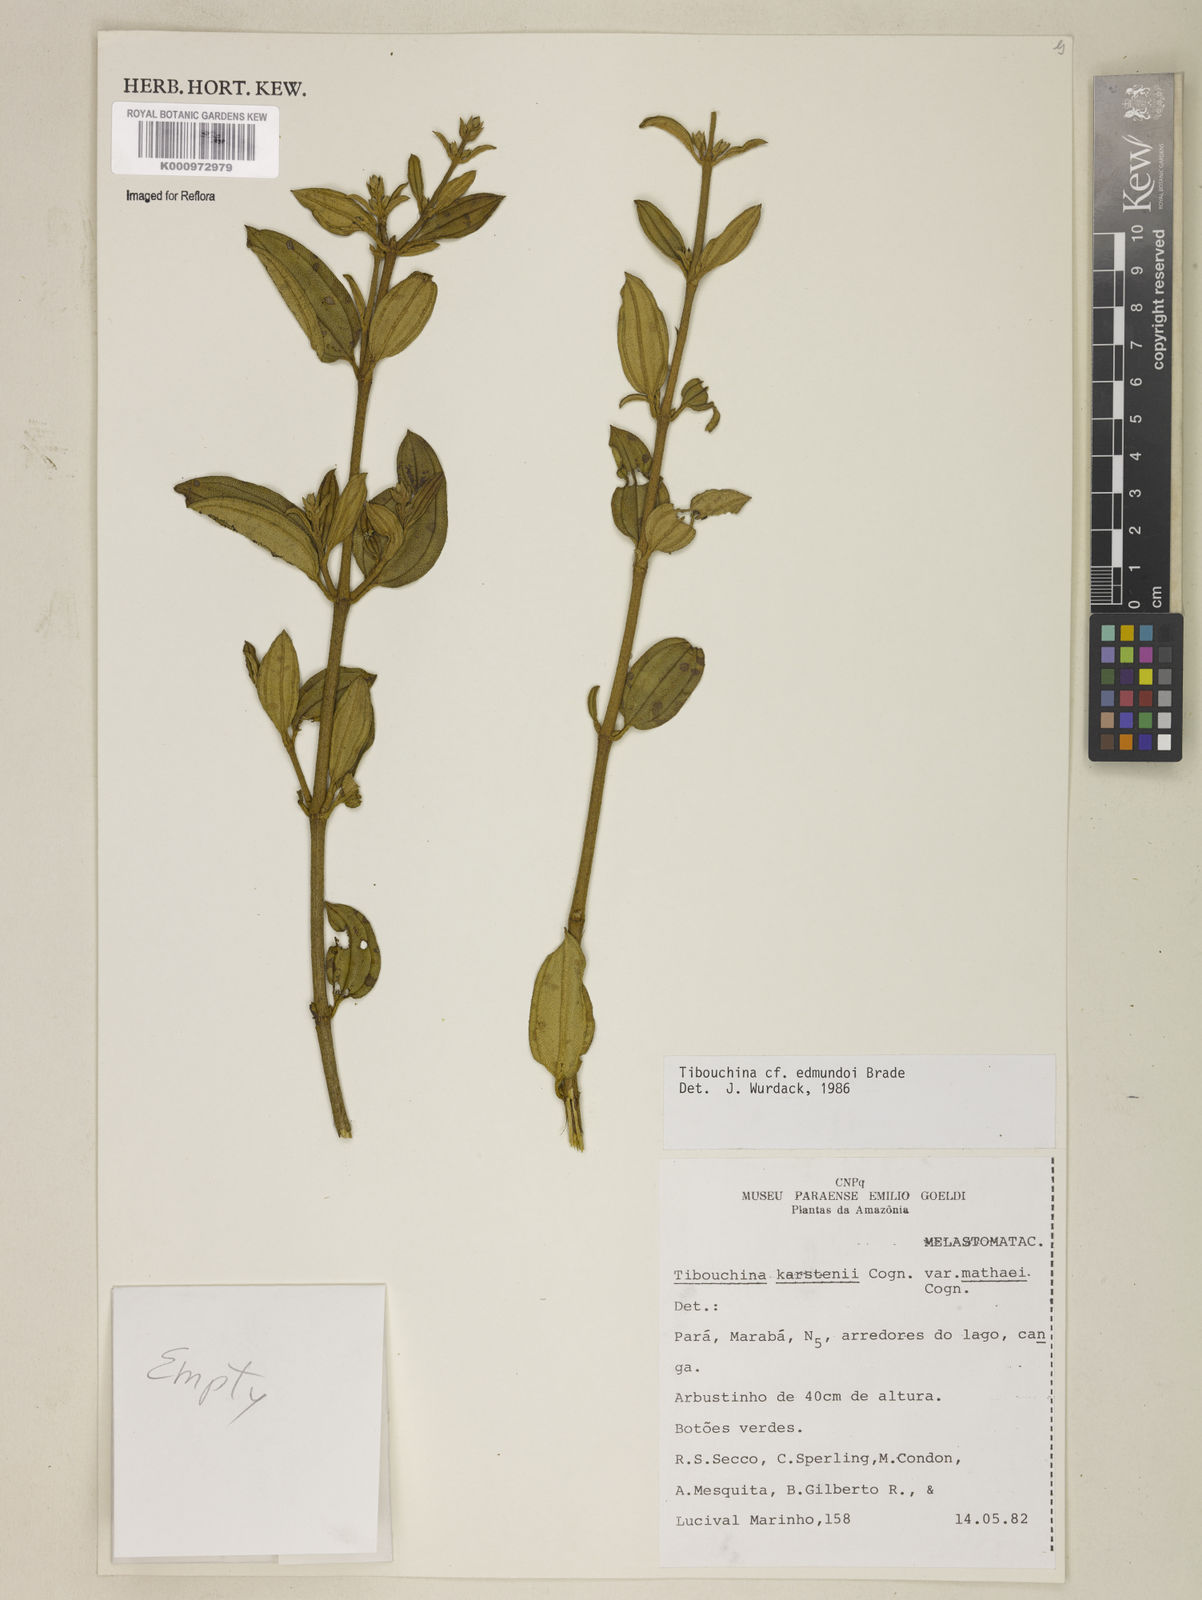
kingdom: Plantae
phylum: Tracheophyta
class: Magnoliopsida
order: Myrtales
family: Melastomataceae
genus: Tibouchina
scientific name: Tibouchina edmundoi
